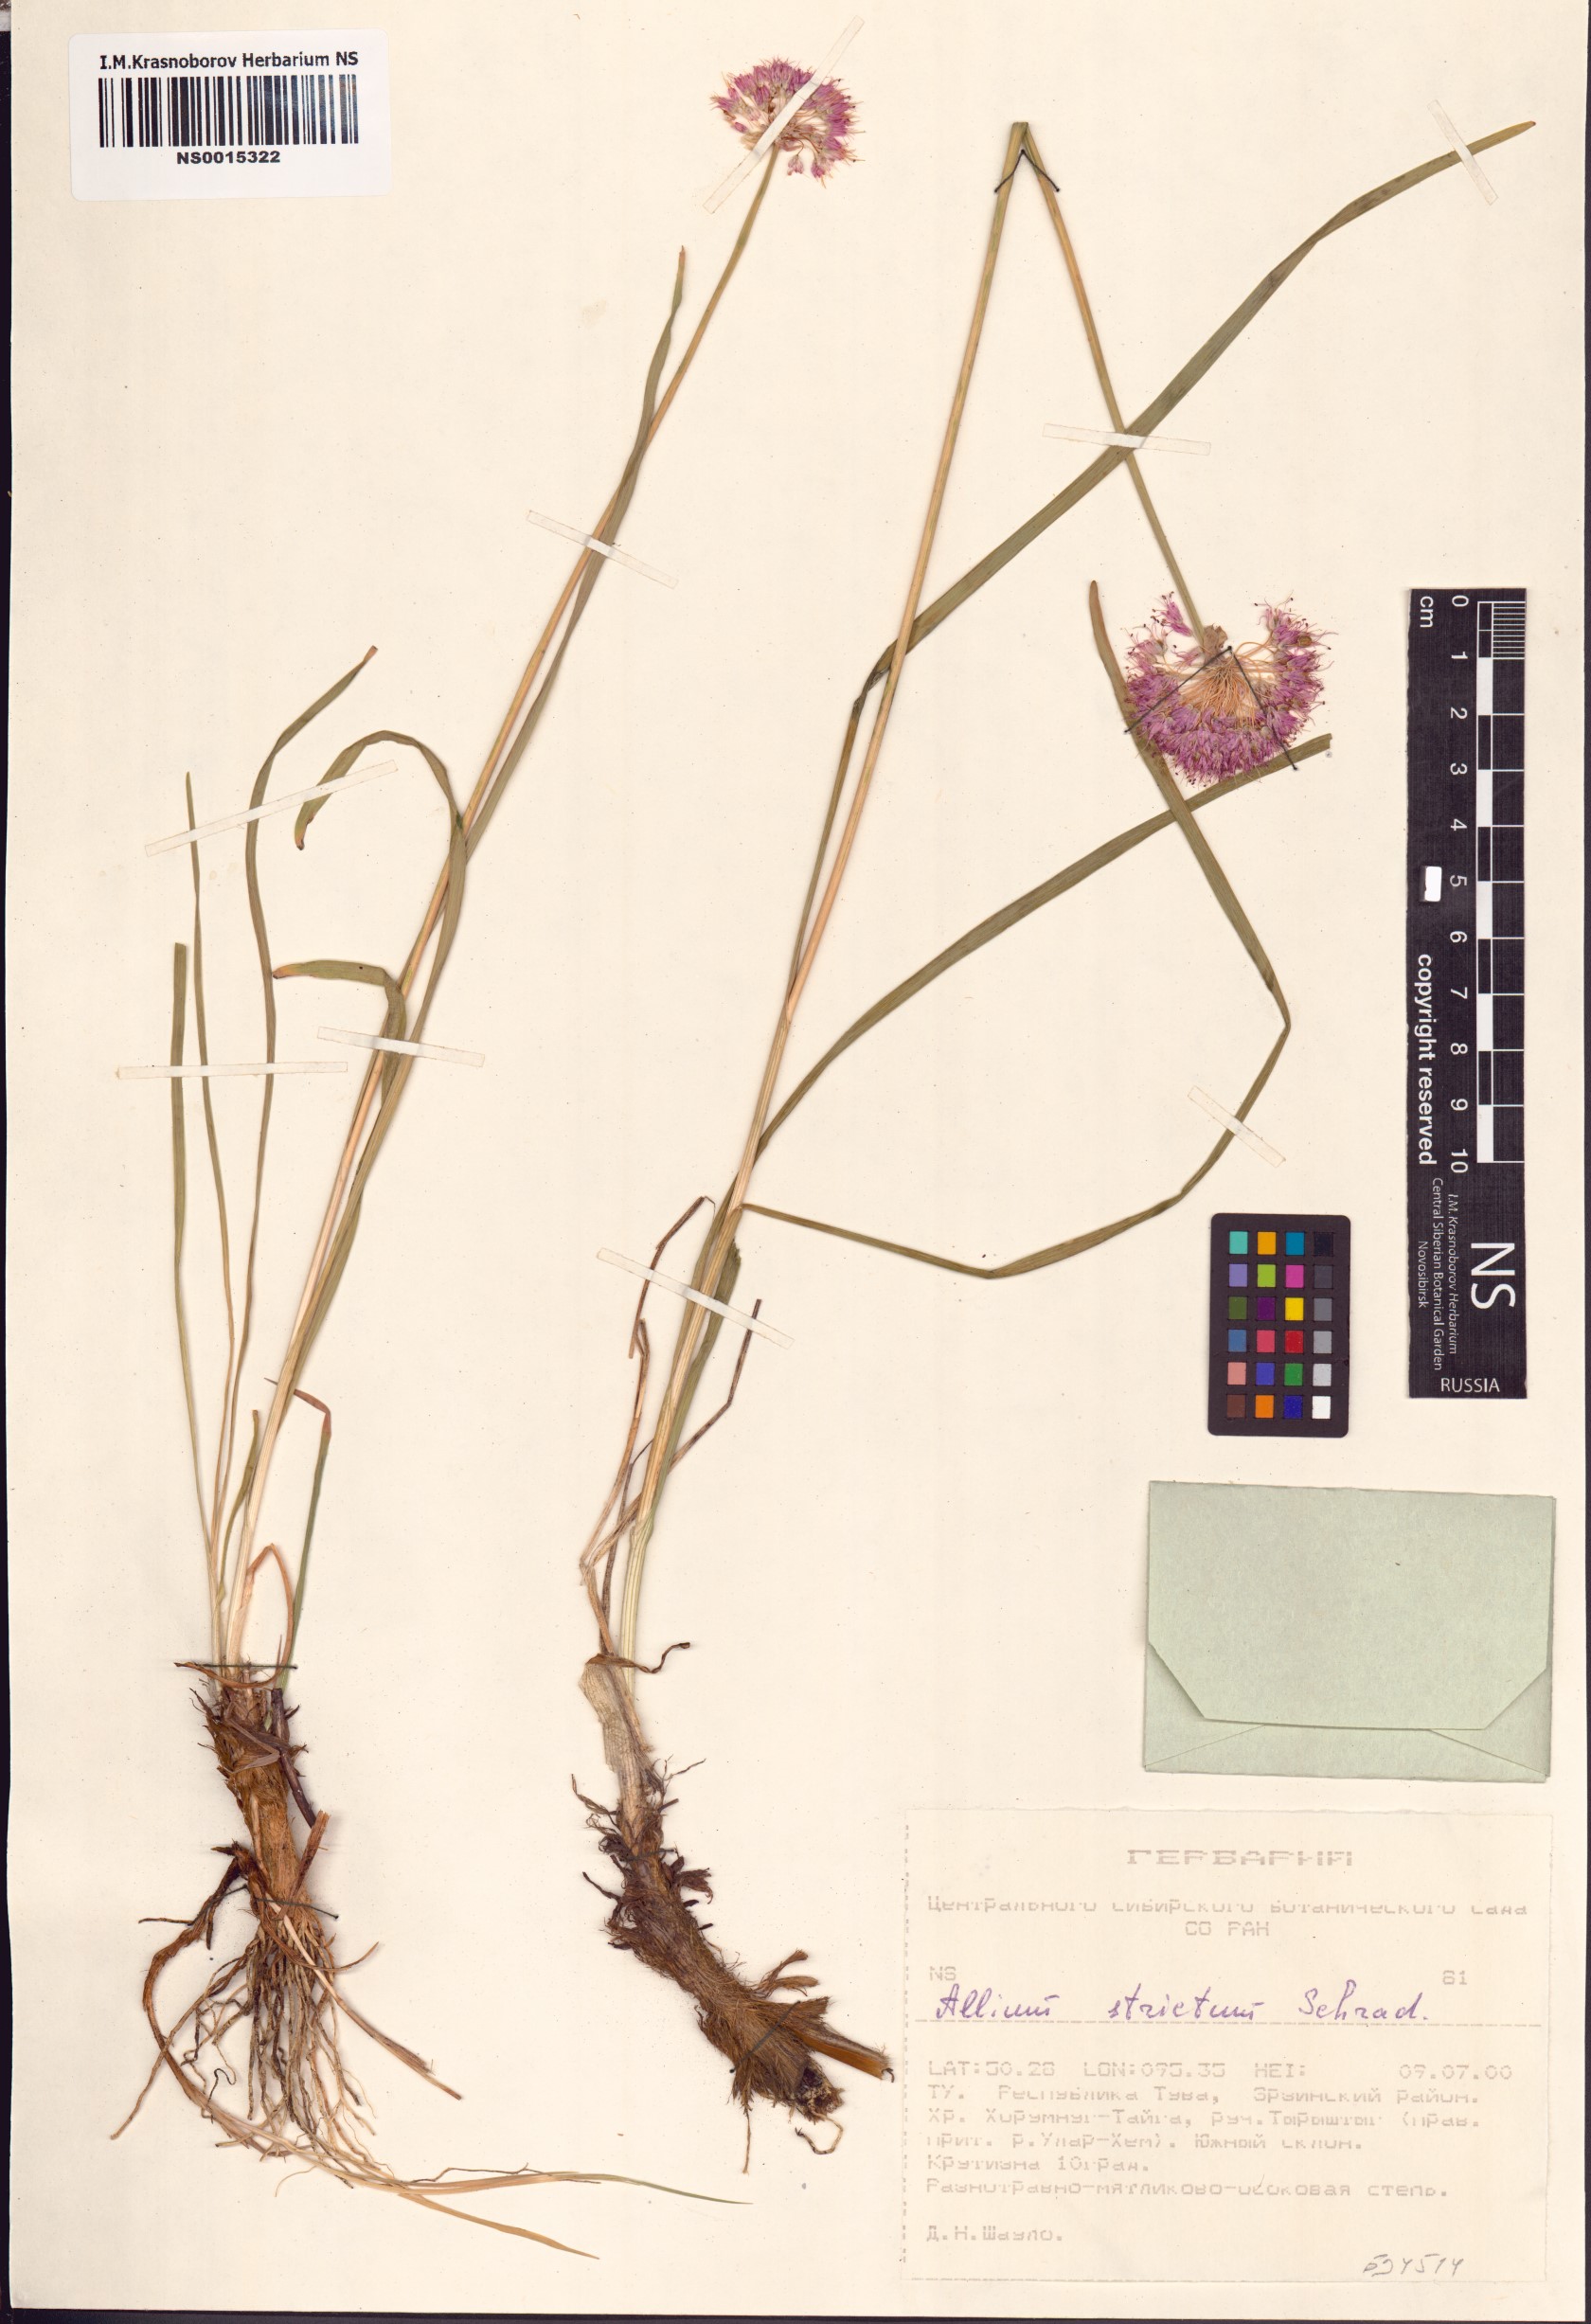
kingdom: Plantae
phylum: Tracheophyta
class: Liliopsida
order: Asparagales
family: Amaryllidaceae
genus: Allium
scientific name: Allium strictum
